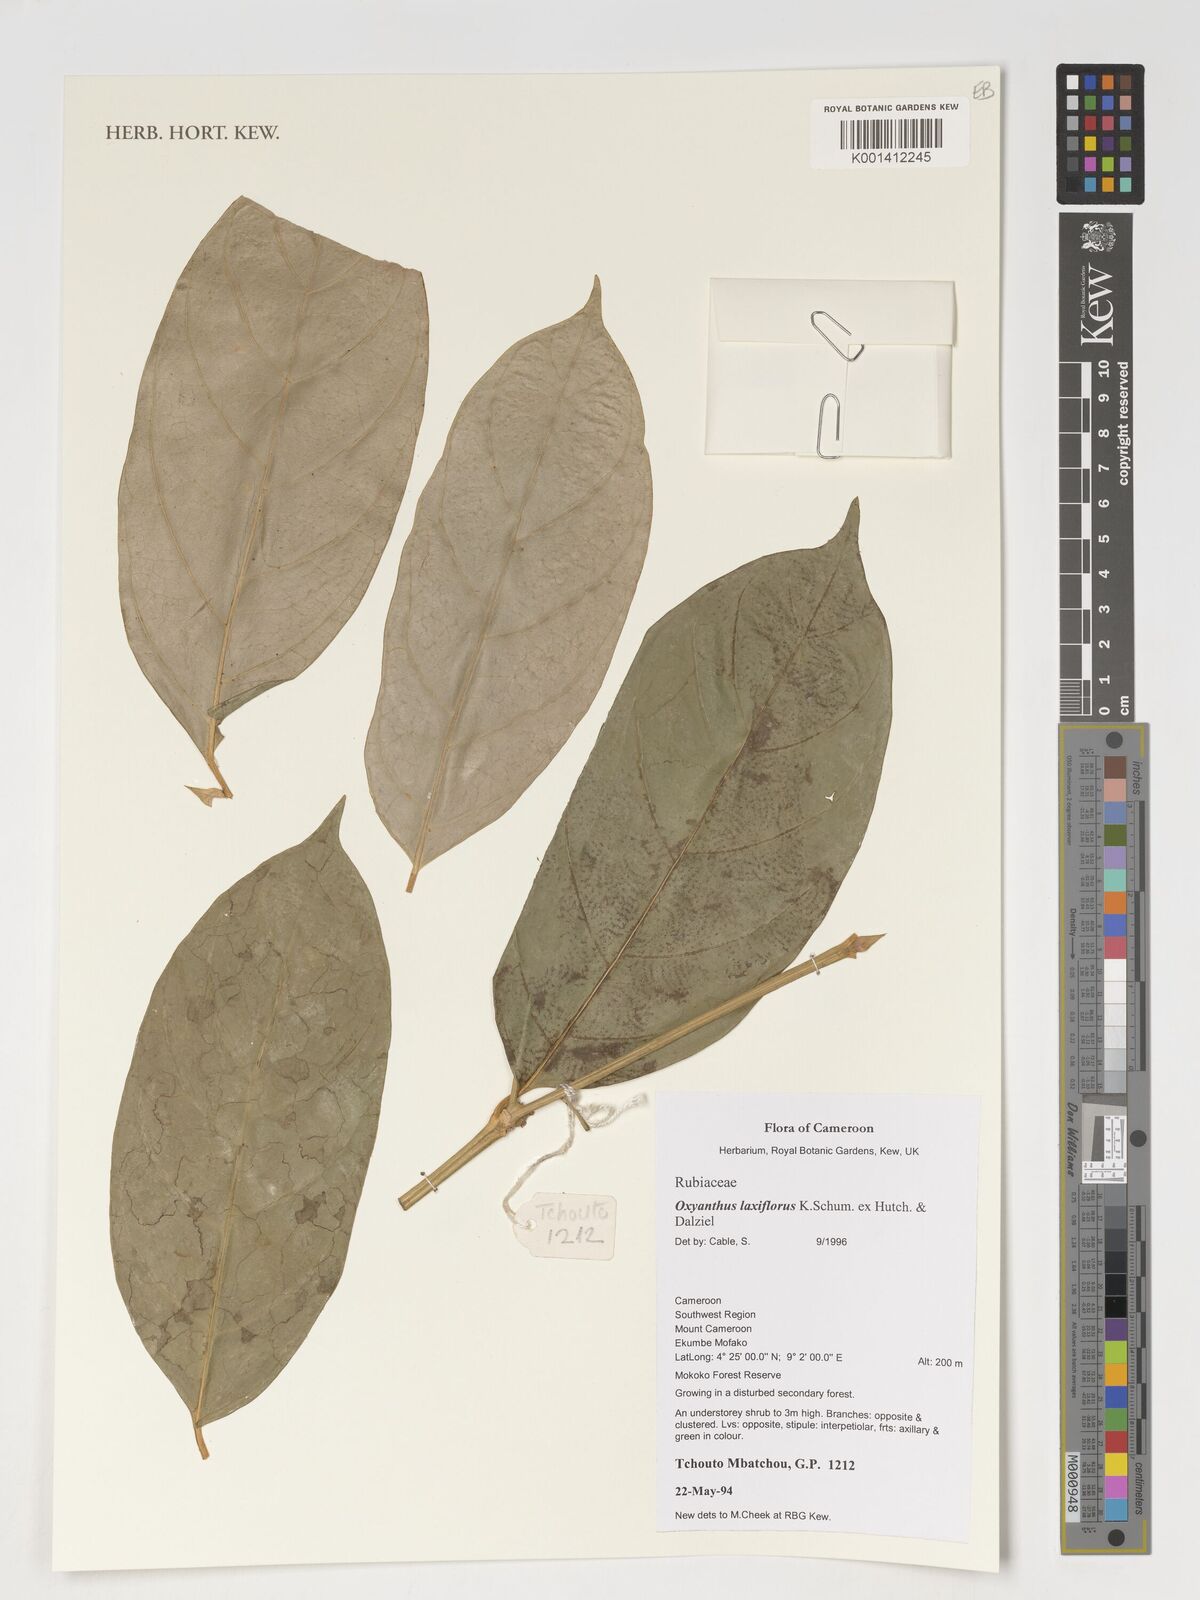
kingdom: Plantae
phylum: Tracheophyta
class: Magnoliopsida
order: Gentianales
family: Rubiaceae
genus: Oxyanthus
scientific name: Oxyanthus laxiflorus
